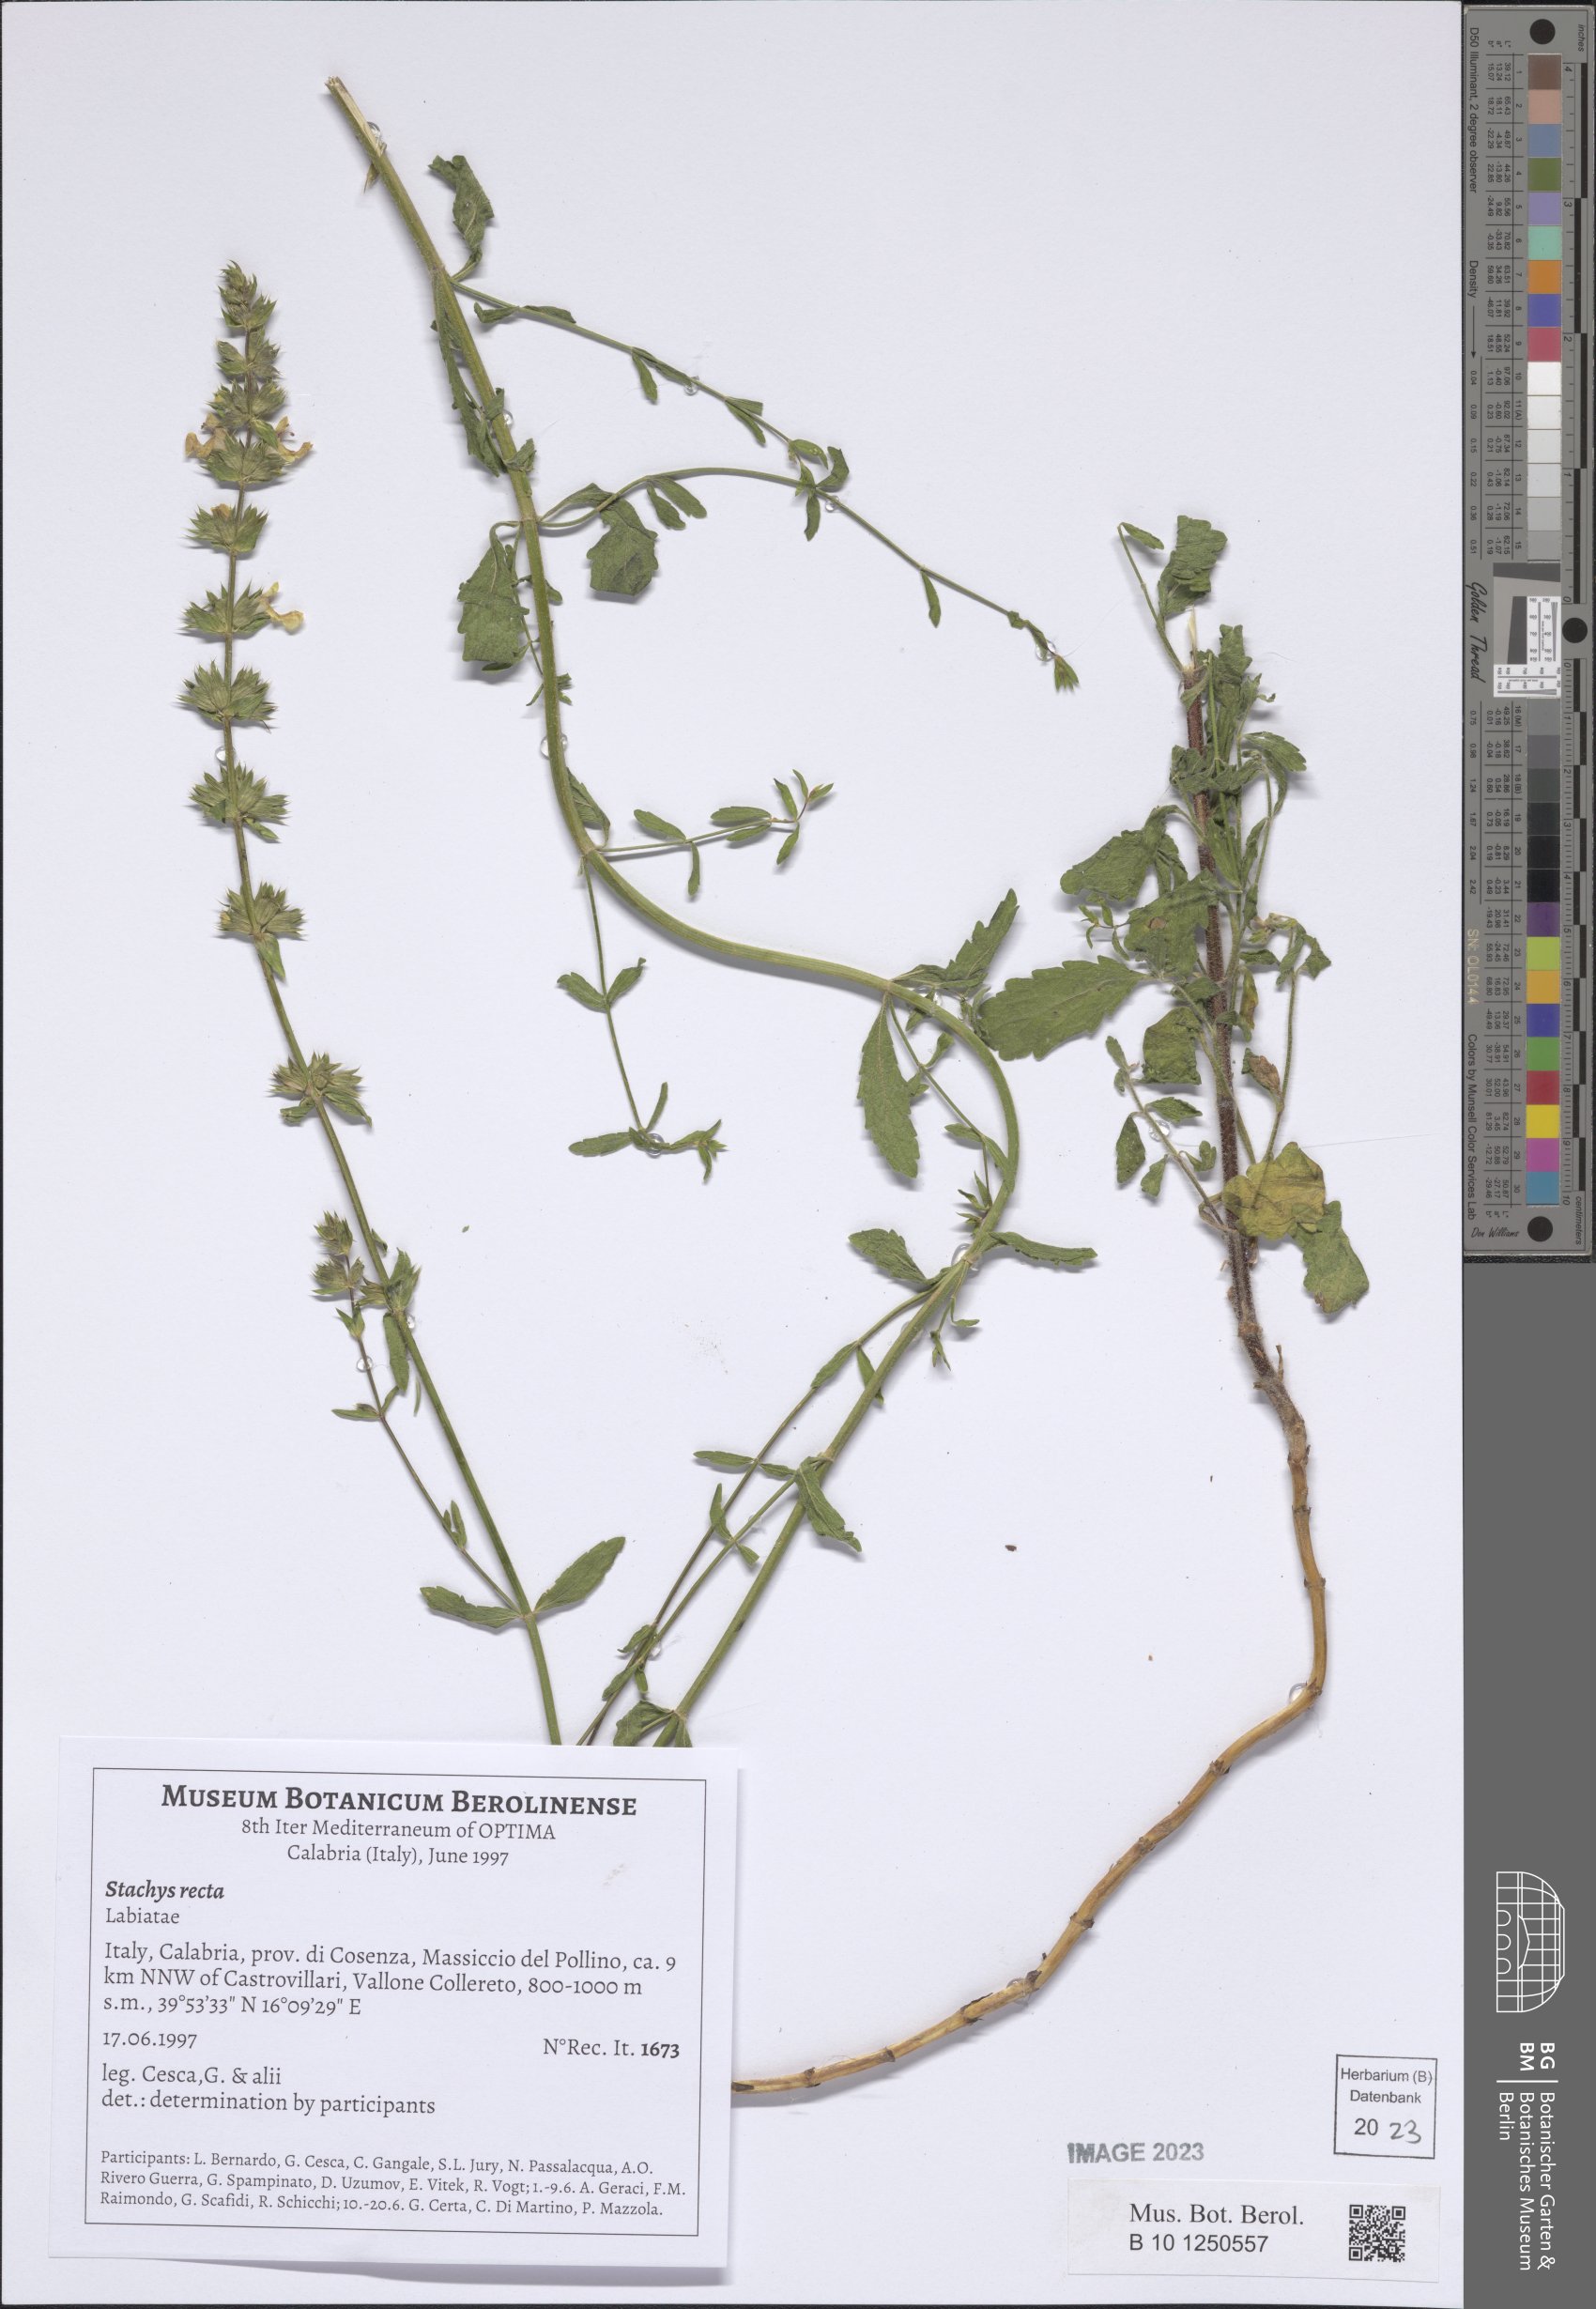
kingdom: Plantae
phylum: Tracheophyta
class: Magnoliopsida
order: Lamiales
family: Lamiaceae
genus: Stachys
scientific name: Stachys recta
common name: Perennial yellow-woundwort
